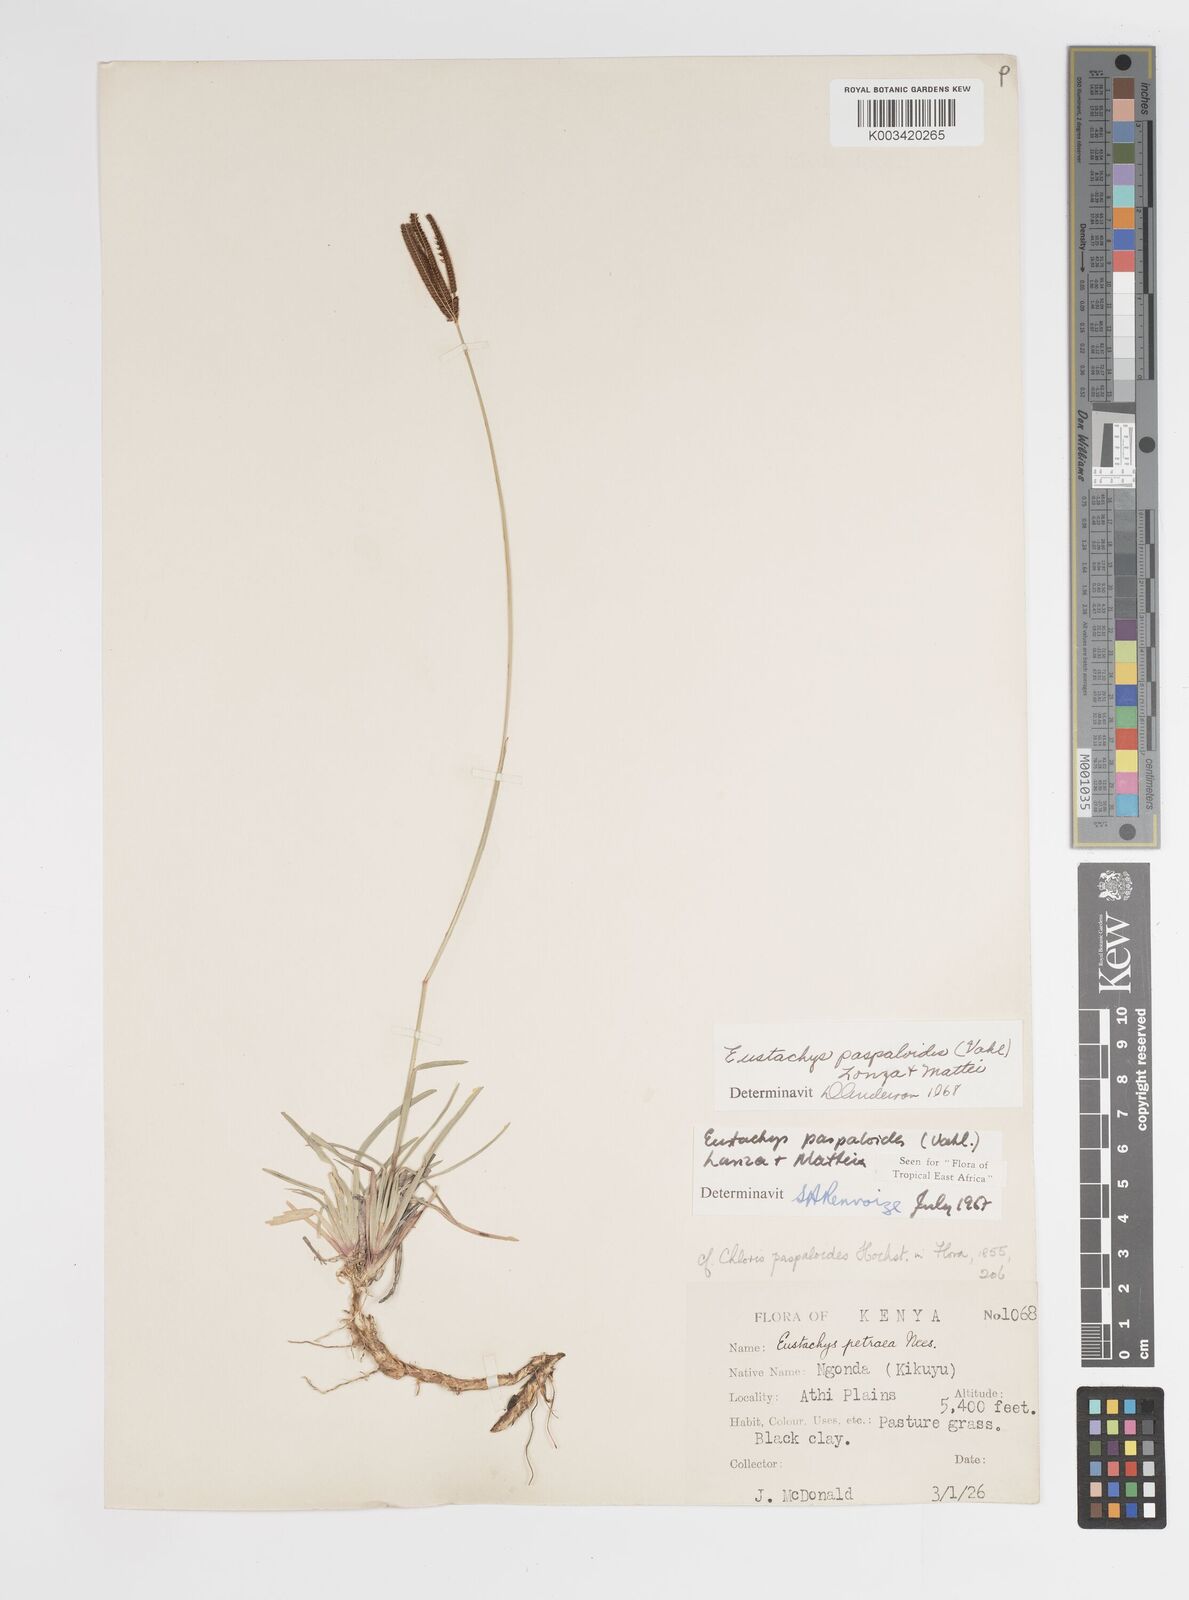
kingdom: Plantae
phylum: Tracheophyta
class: Liliopsida
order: Poales
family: Poaceae
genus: Eustachys
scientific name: Eustachys paspaloides
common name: Caribbean fingergrass
